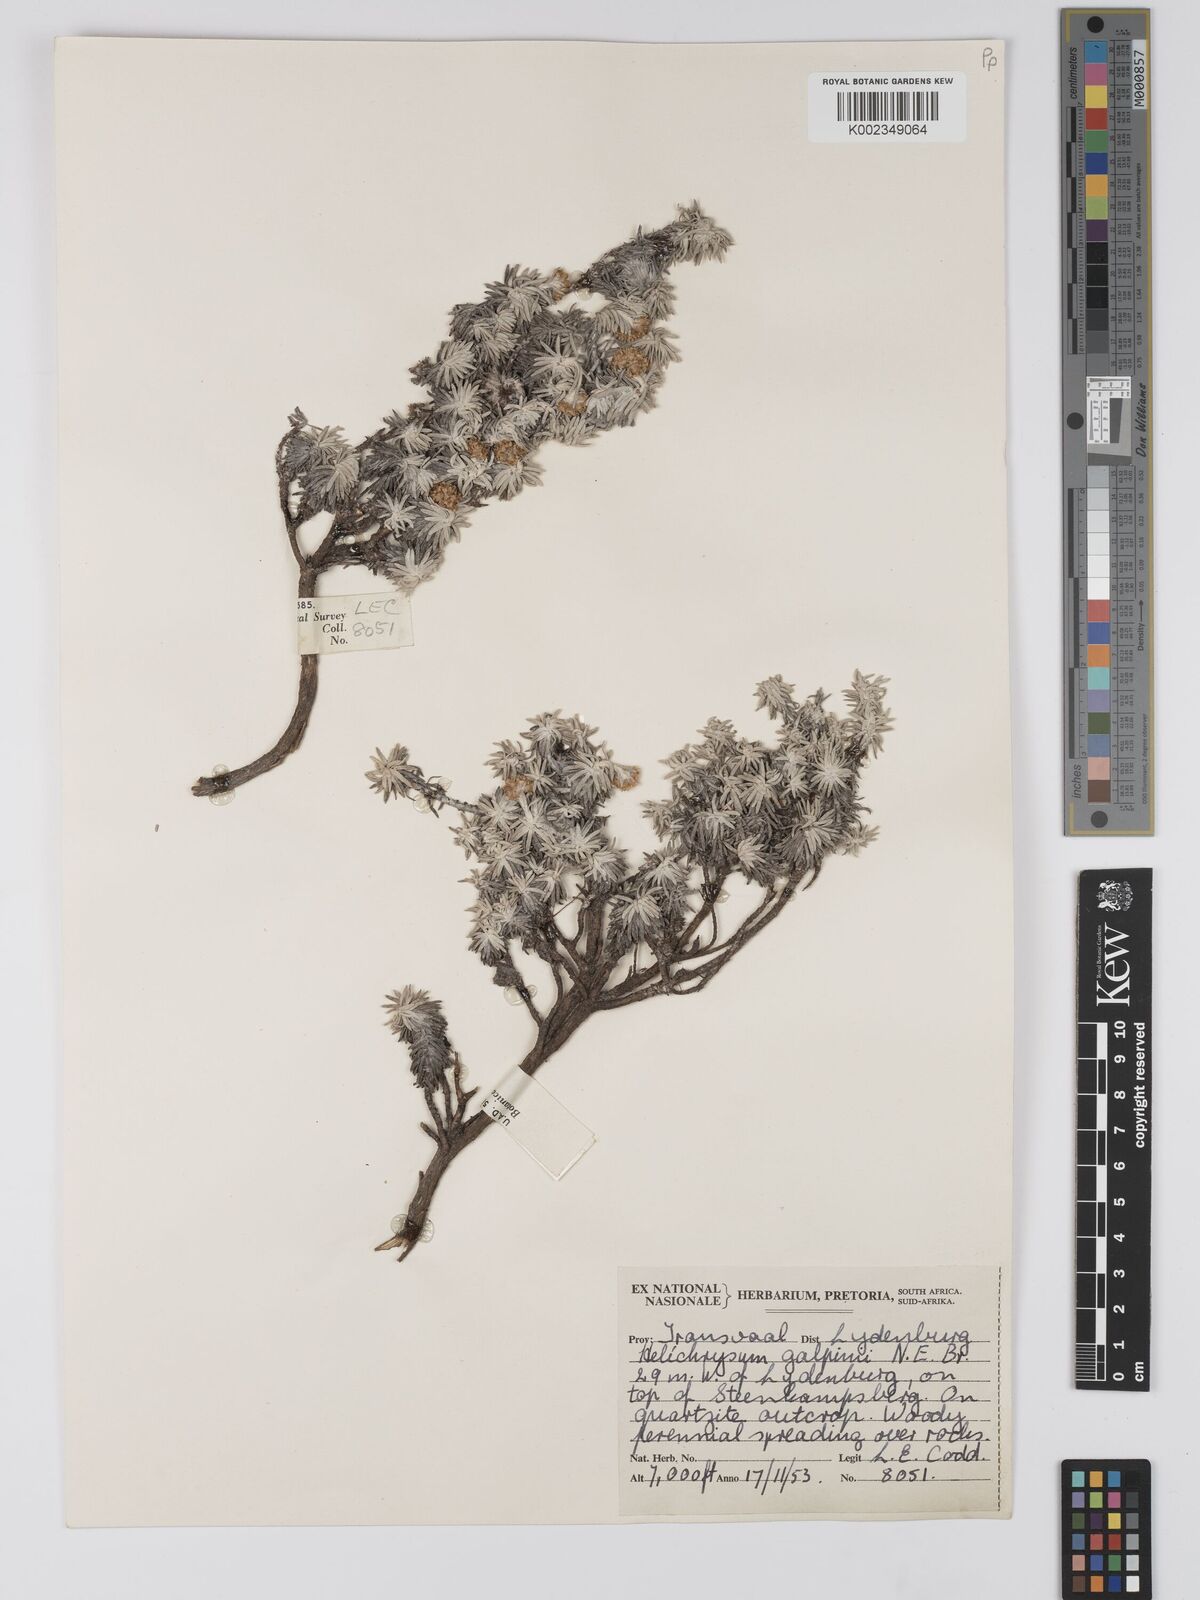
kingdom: Plantae
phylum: Tracheophyta
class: Magnoliopsida
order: Asterales
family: Asteraceae
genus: Helichrysum
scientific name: Helichrysum galpinii
